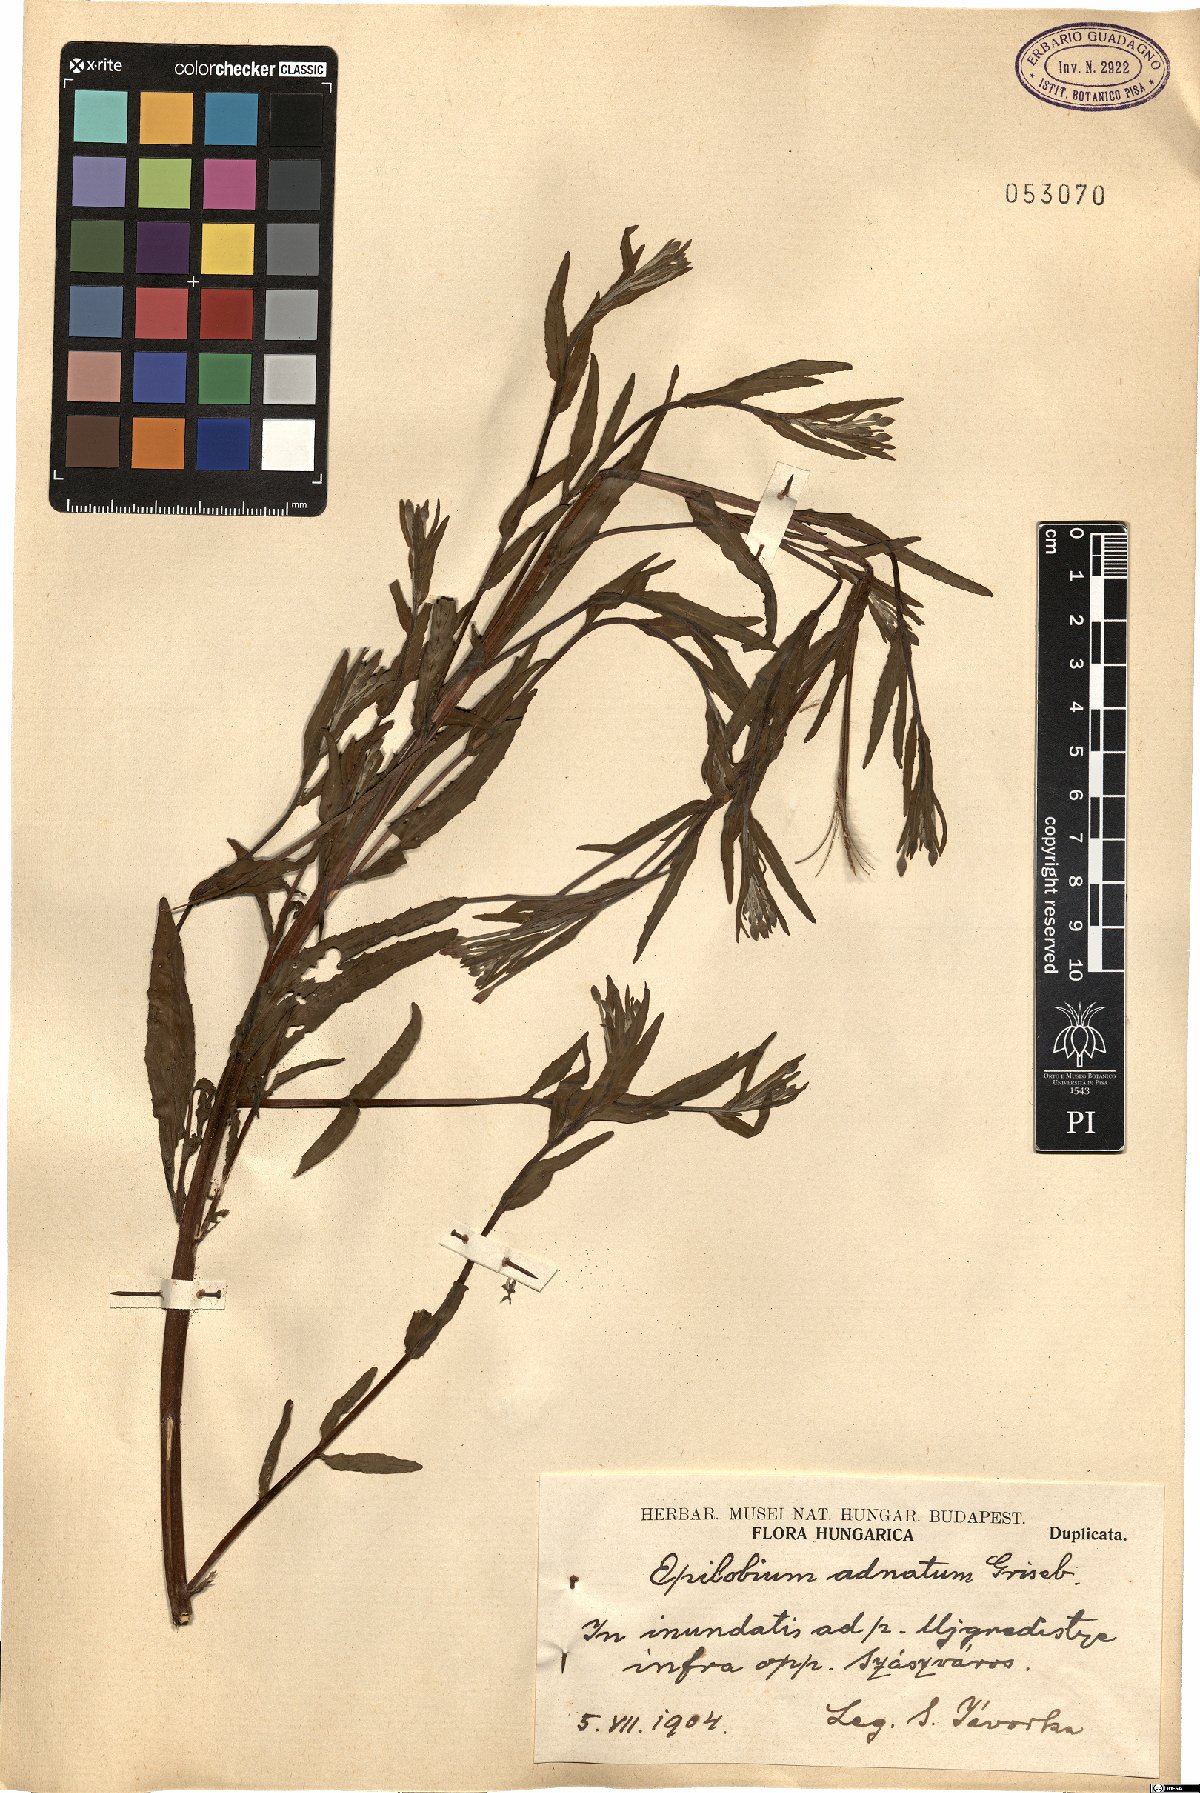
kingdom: Plantae
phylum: Tracheophyta
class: Magnoliopsida
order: Myrtales
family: Onagraceae
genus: Epilobium
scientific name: Epilobium tetragonum
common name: Square-stemmed willowherb
